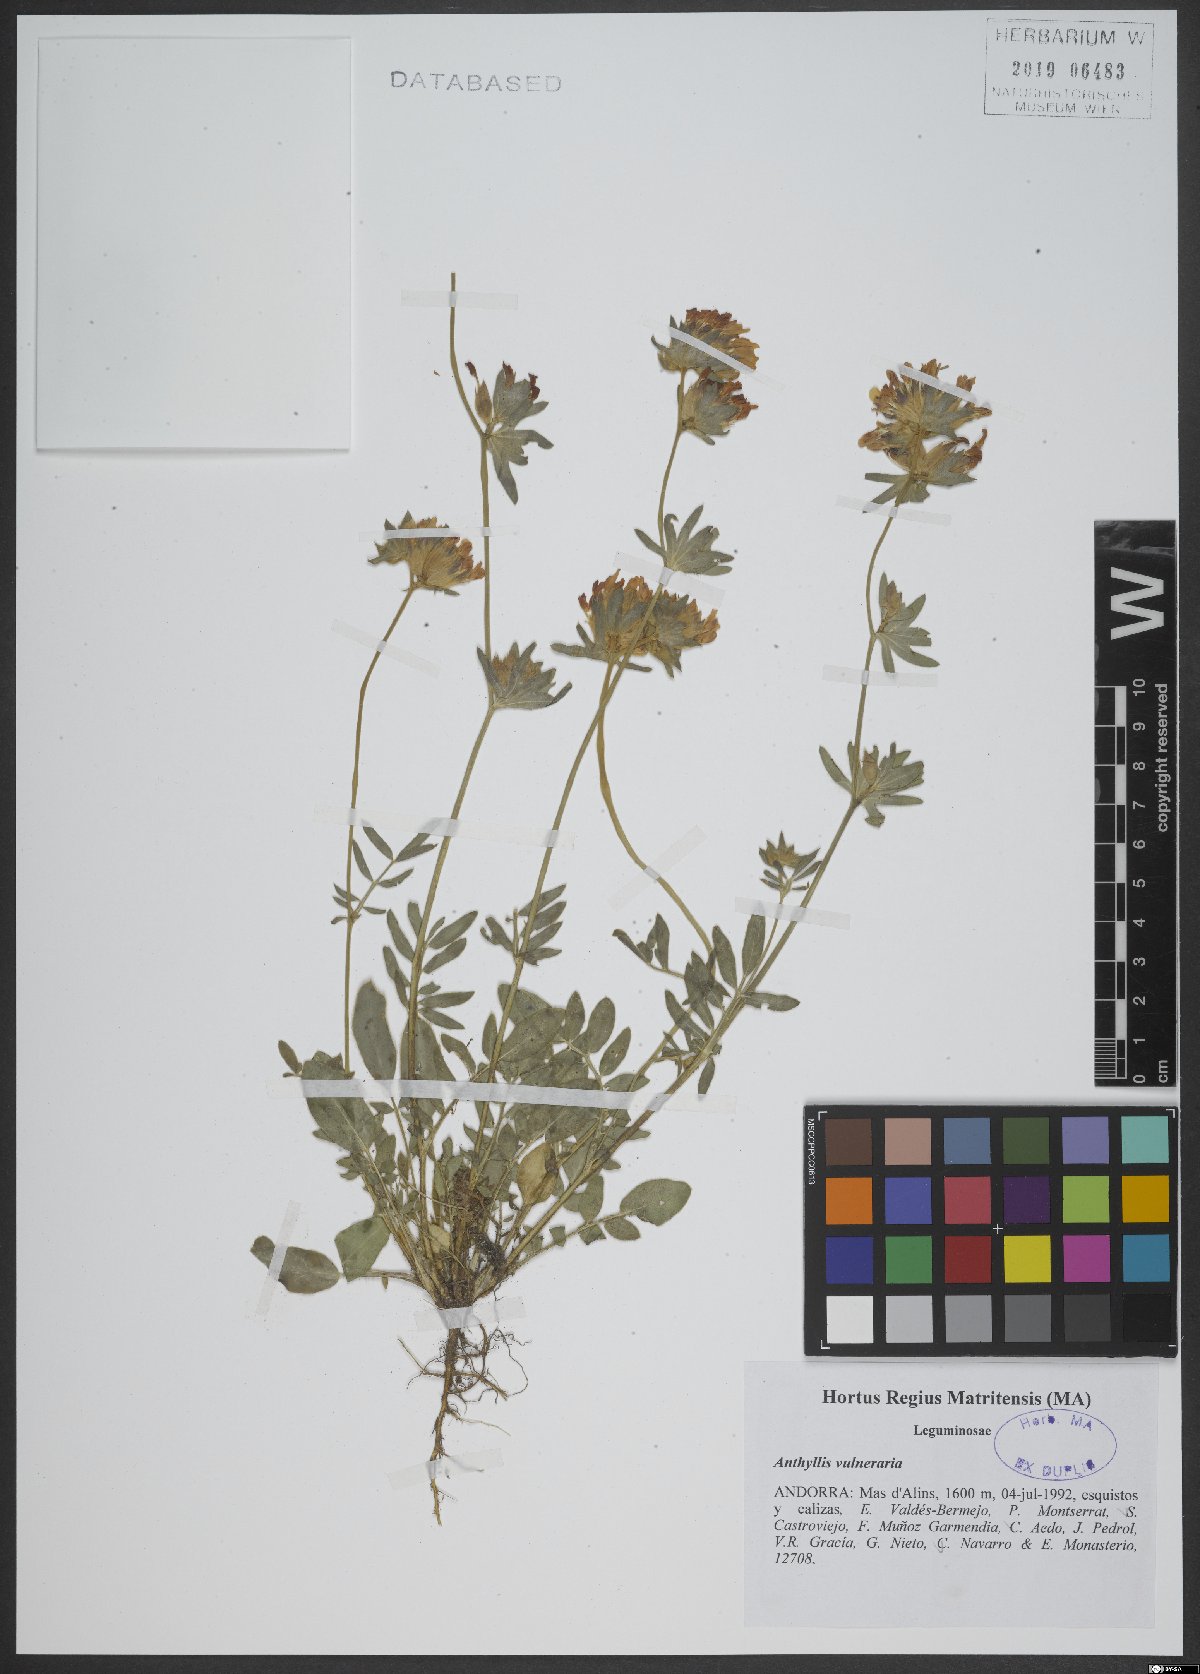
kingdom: Plantae
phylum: Tracheophyta
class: Magnoliopsida
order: Fabales
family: Fabaceae
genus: Anthyllis
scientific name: Anthyllis vulneraria
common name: Kidney vetch
